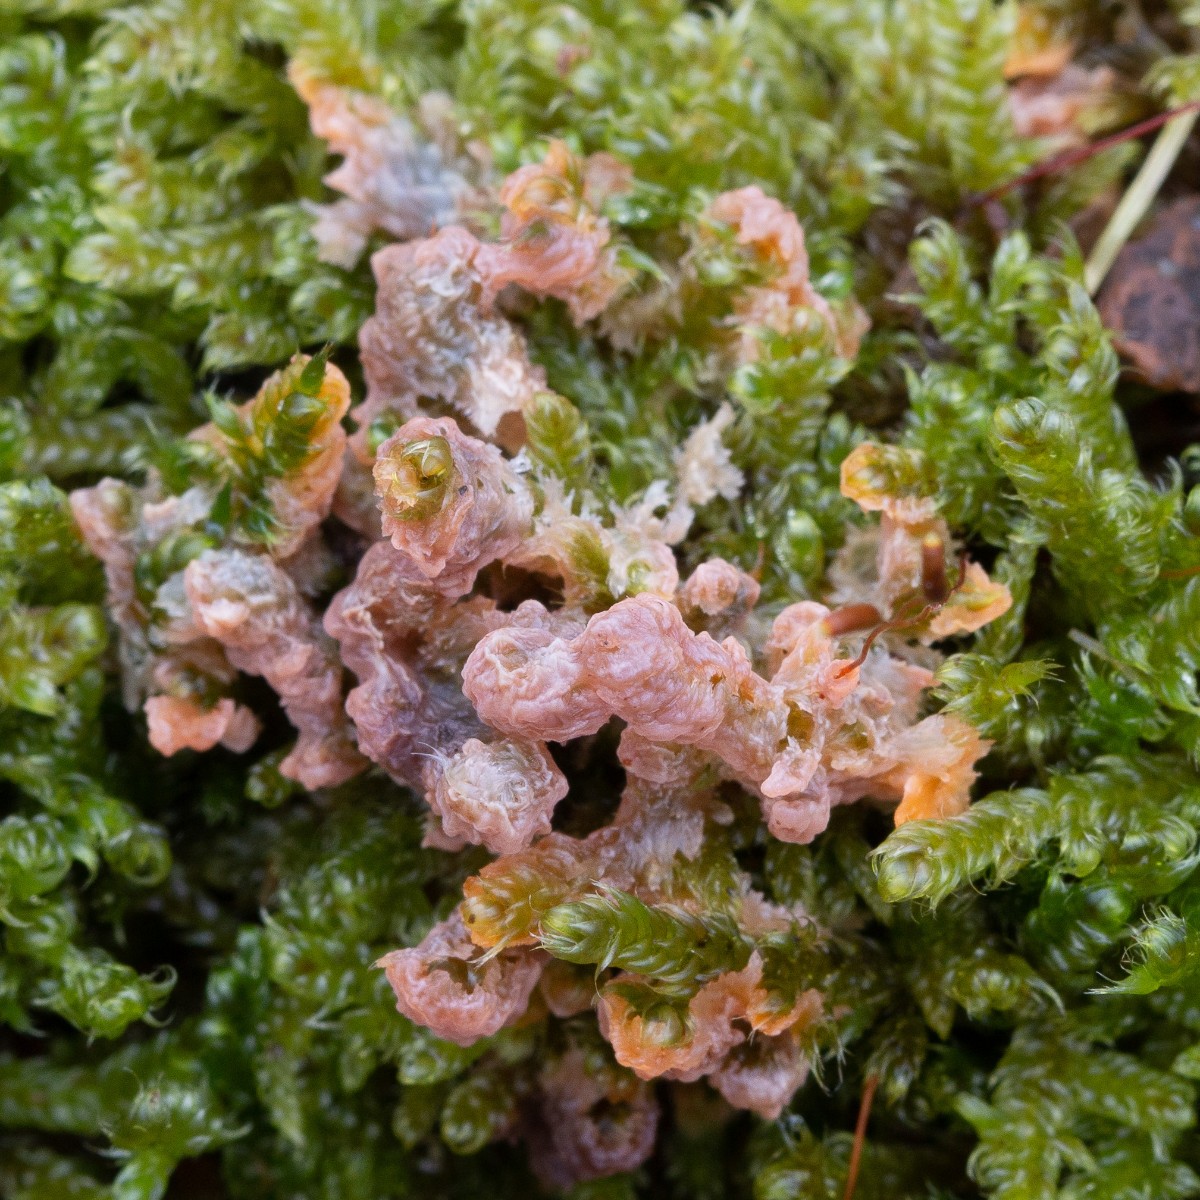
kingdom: Fungi
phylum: Basidiomycota
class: Agaricomycetes
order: Polyporales
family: Meruliaceae
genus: Phlebia
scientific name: Phlebia radiata
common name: stråle-åresvamp
